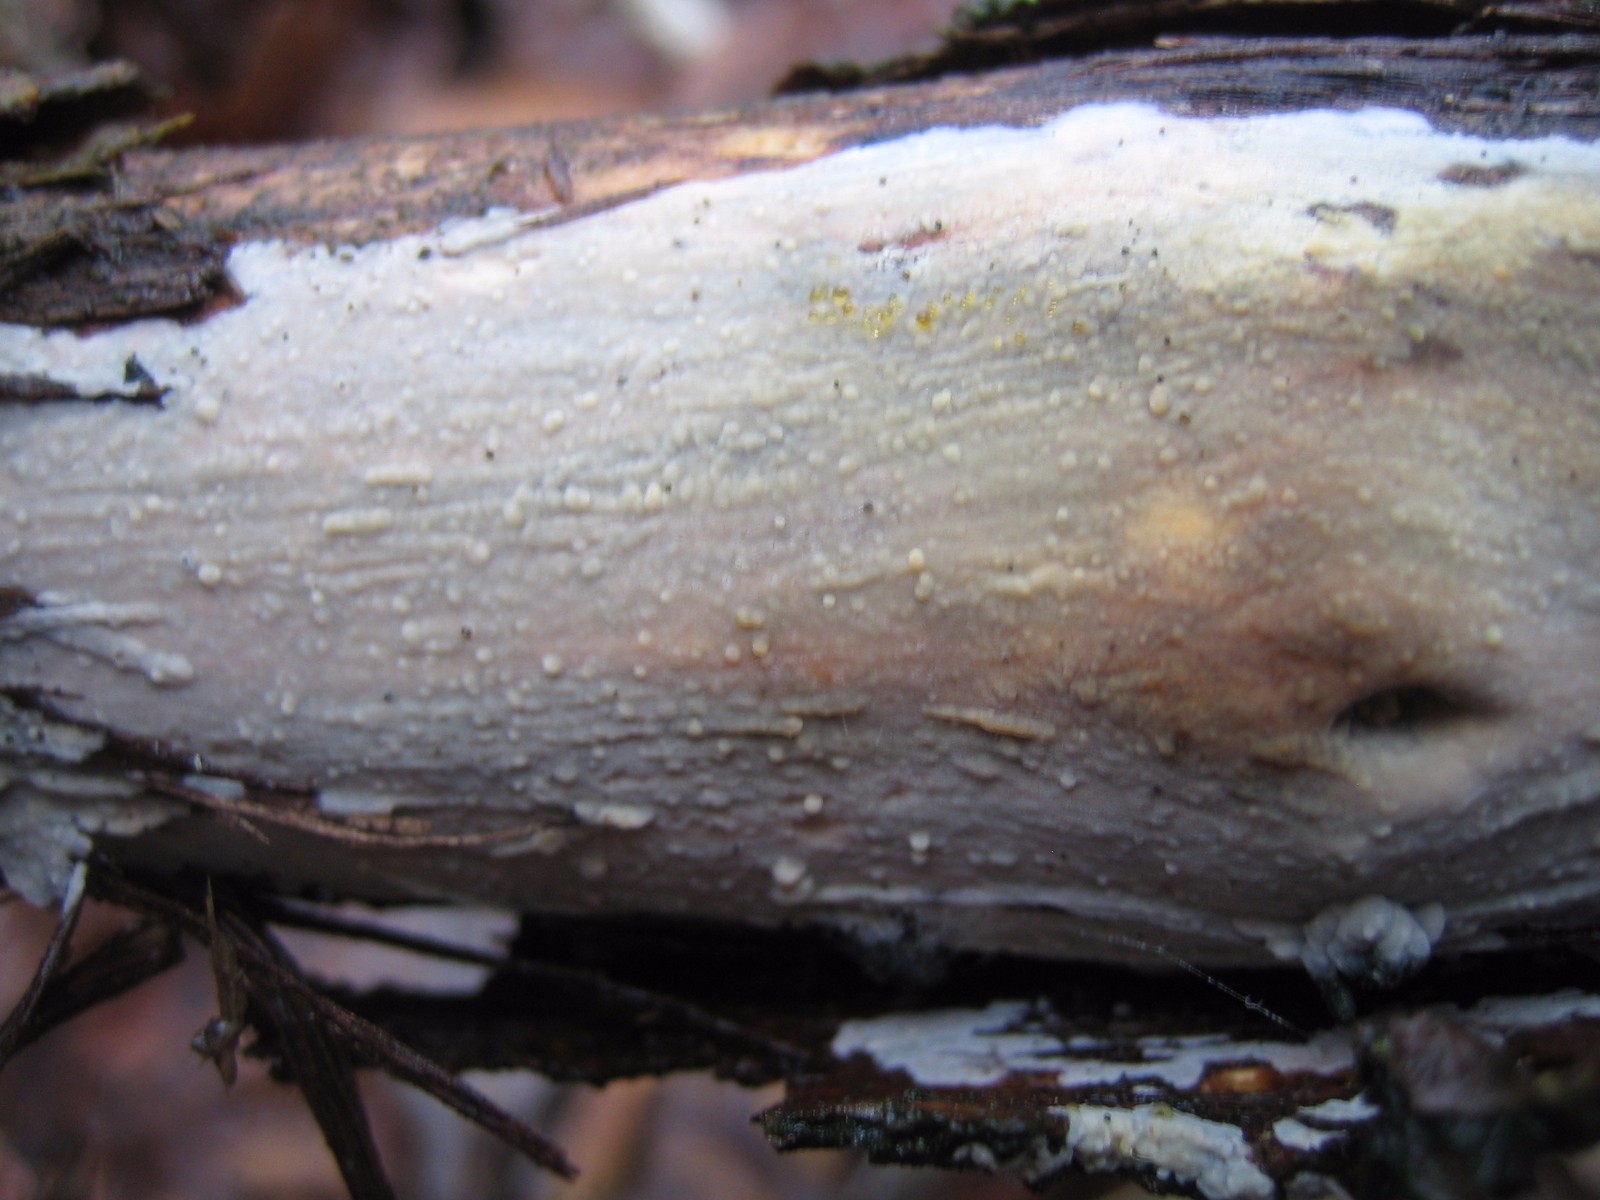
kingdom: Fungi
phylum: Basidiomycota
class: Agaricomycetes
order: Agaricales
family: Radulomycetaceae
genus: Radulomyces
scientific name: Radulomyces confluens
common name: glat naftalinskind
